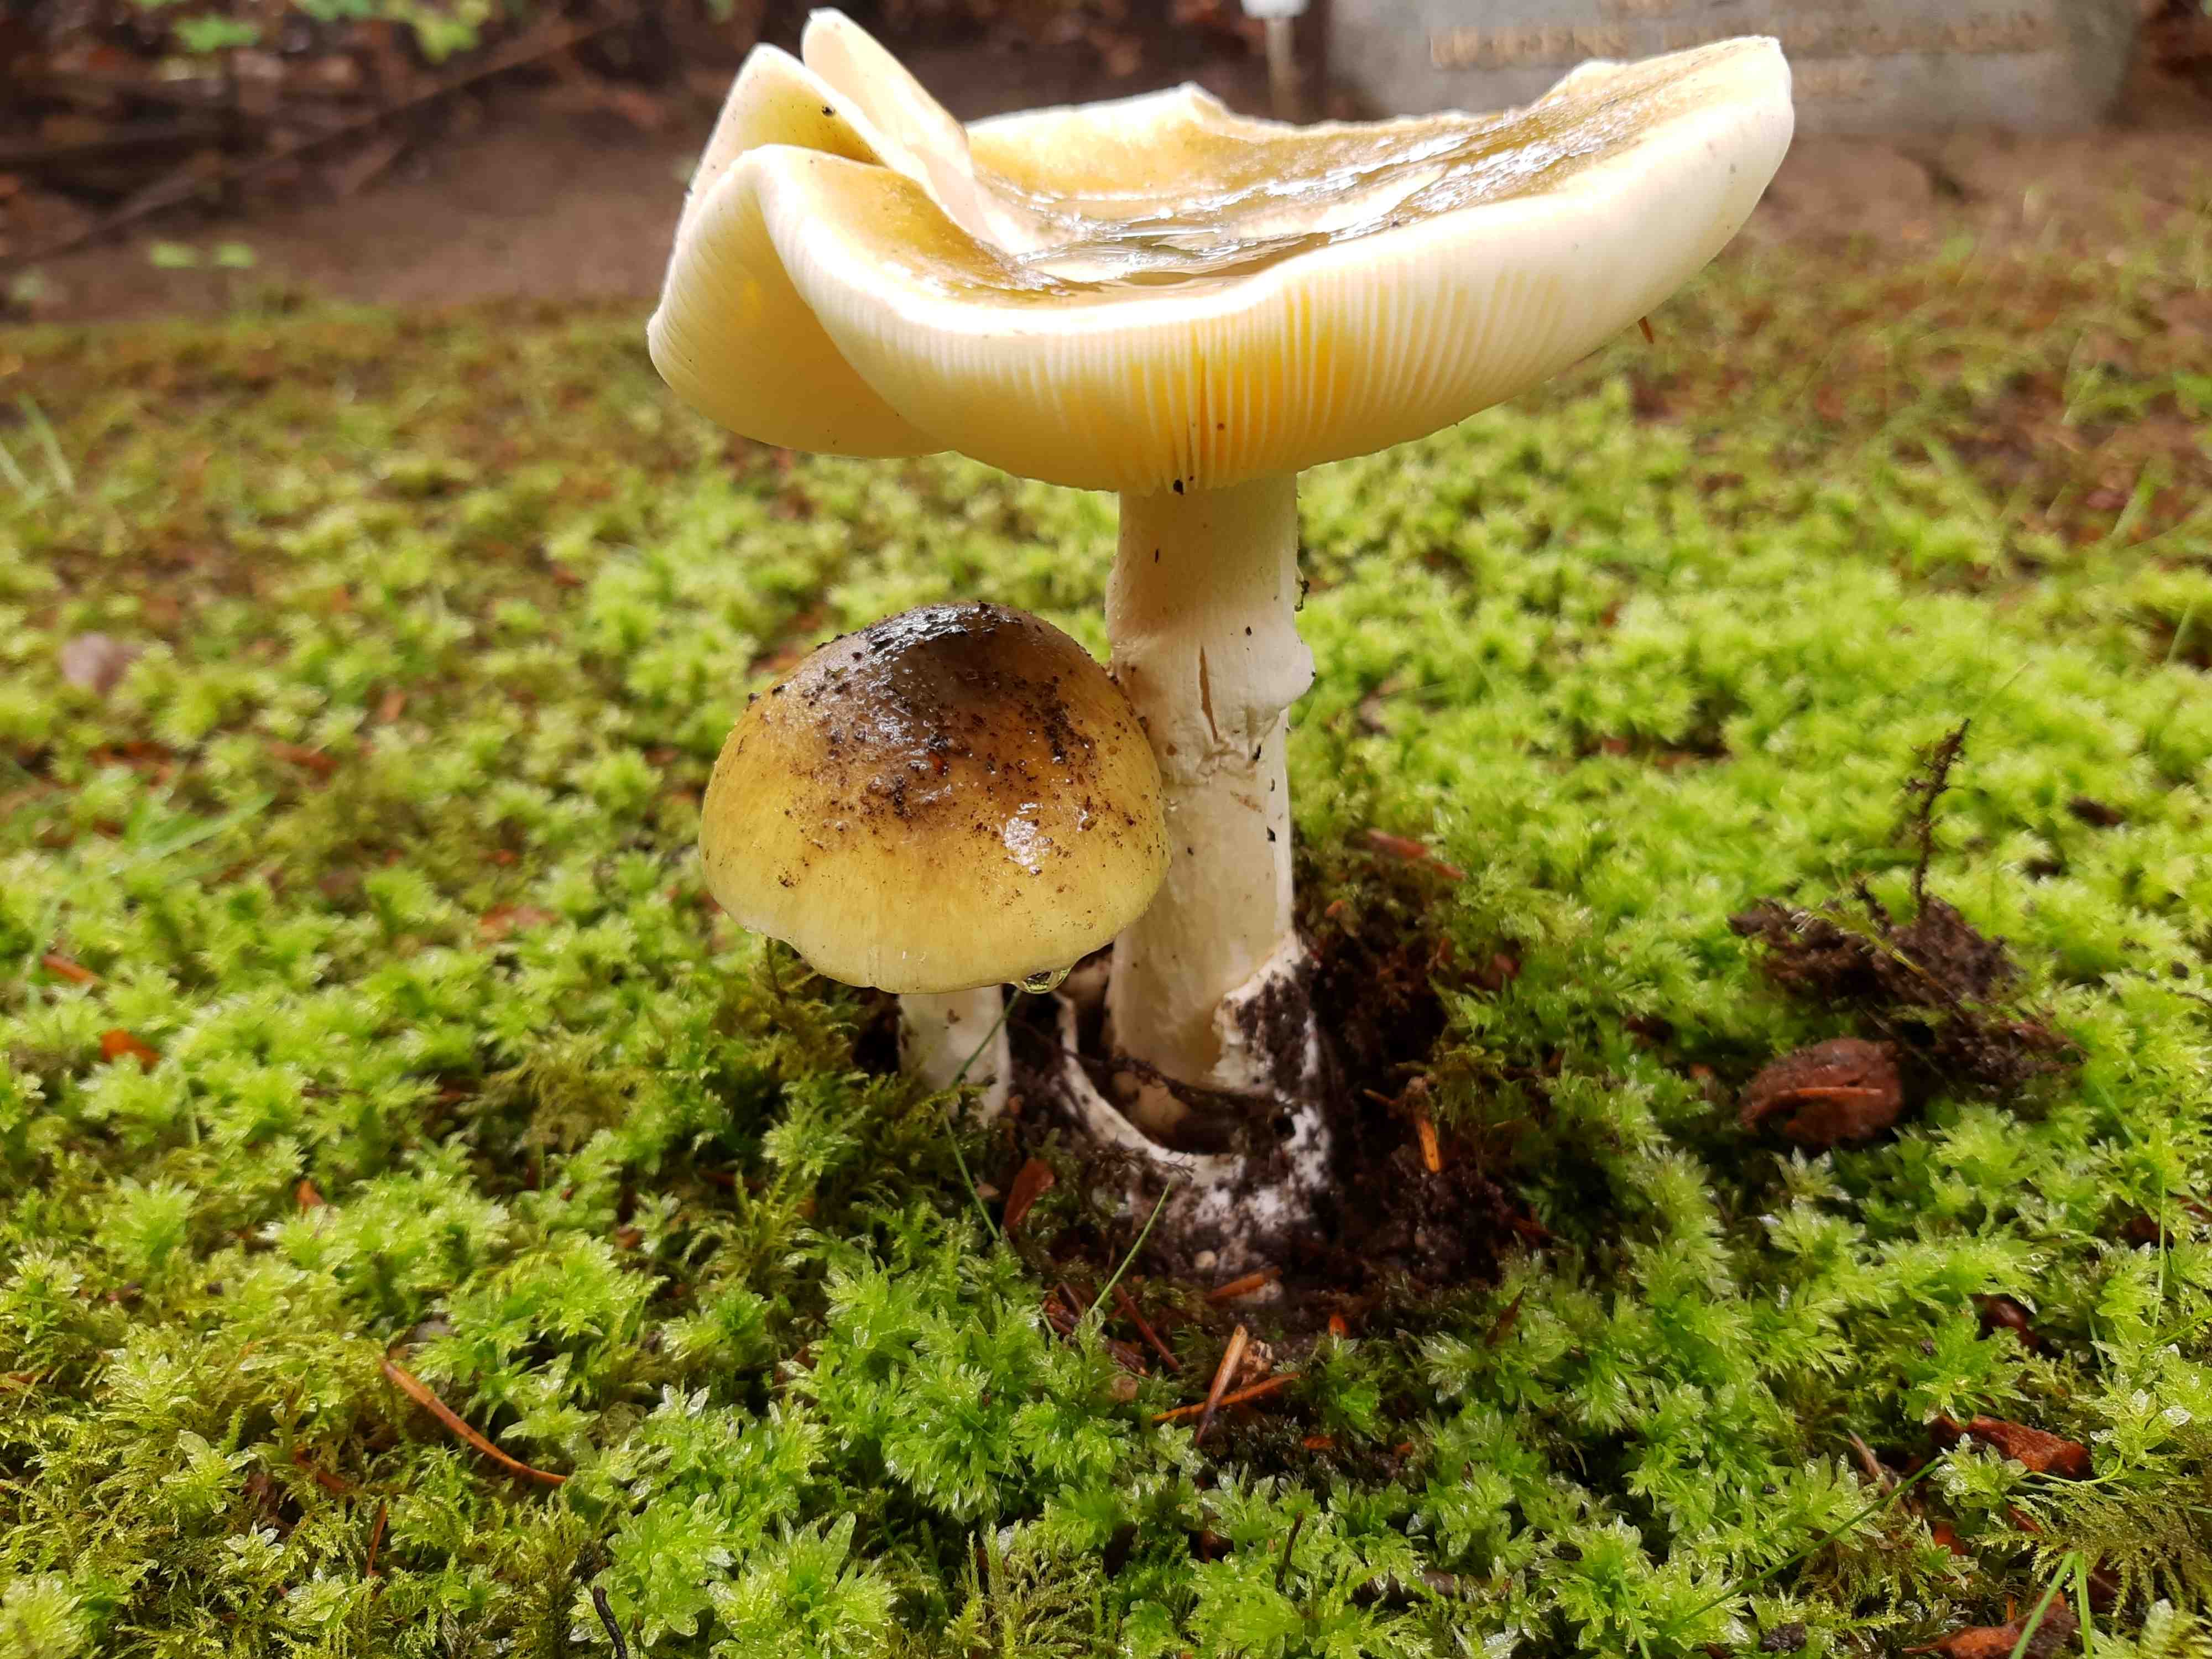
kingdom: Fungi
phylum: Basidiomycota
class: Agaricomycetes
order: Agaricales
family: Amanitaceae
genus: Amanita
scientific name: Amanita phalloides
